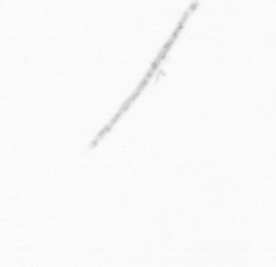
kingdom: Chromista
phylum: Ochrophyta
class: Bacillariophyceae
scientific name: Bacillariophyceae
